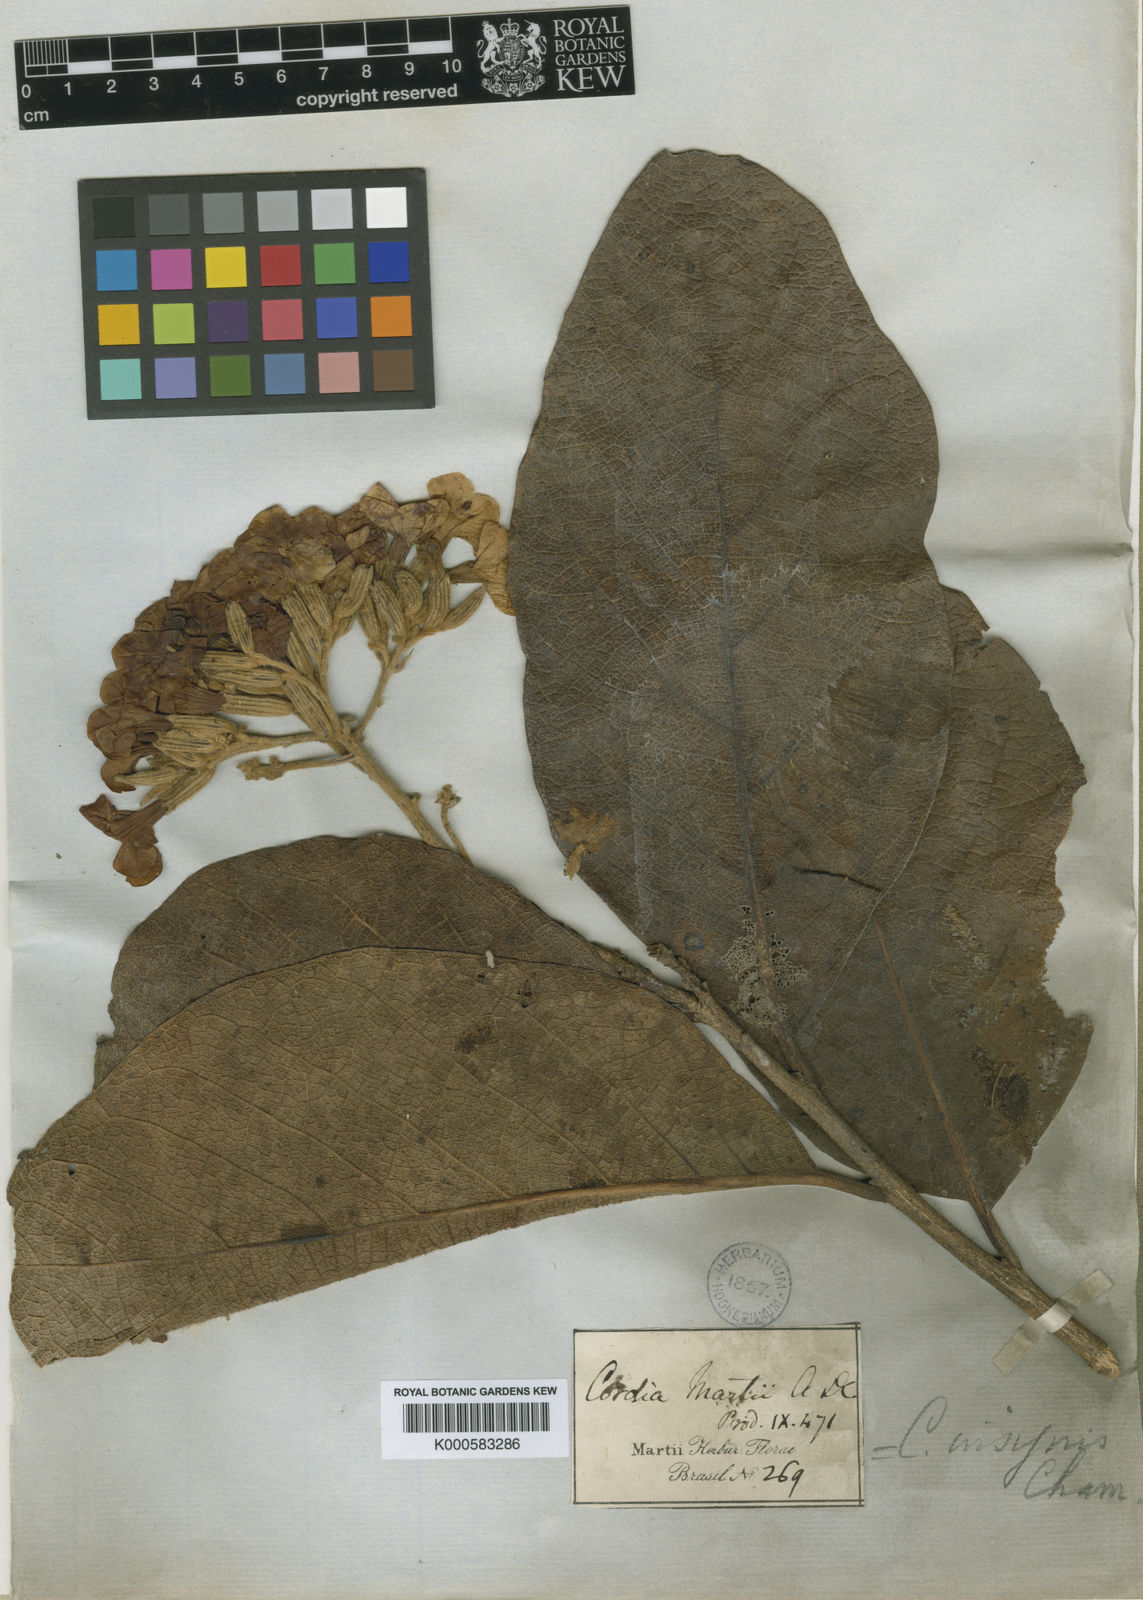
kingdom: Plantae
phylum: Tracheophyta
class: Magnoliopsida
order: Boraginales
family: Cordiaceae
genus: Cordia
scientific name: Cordia insignis
